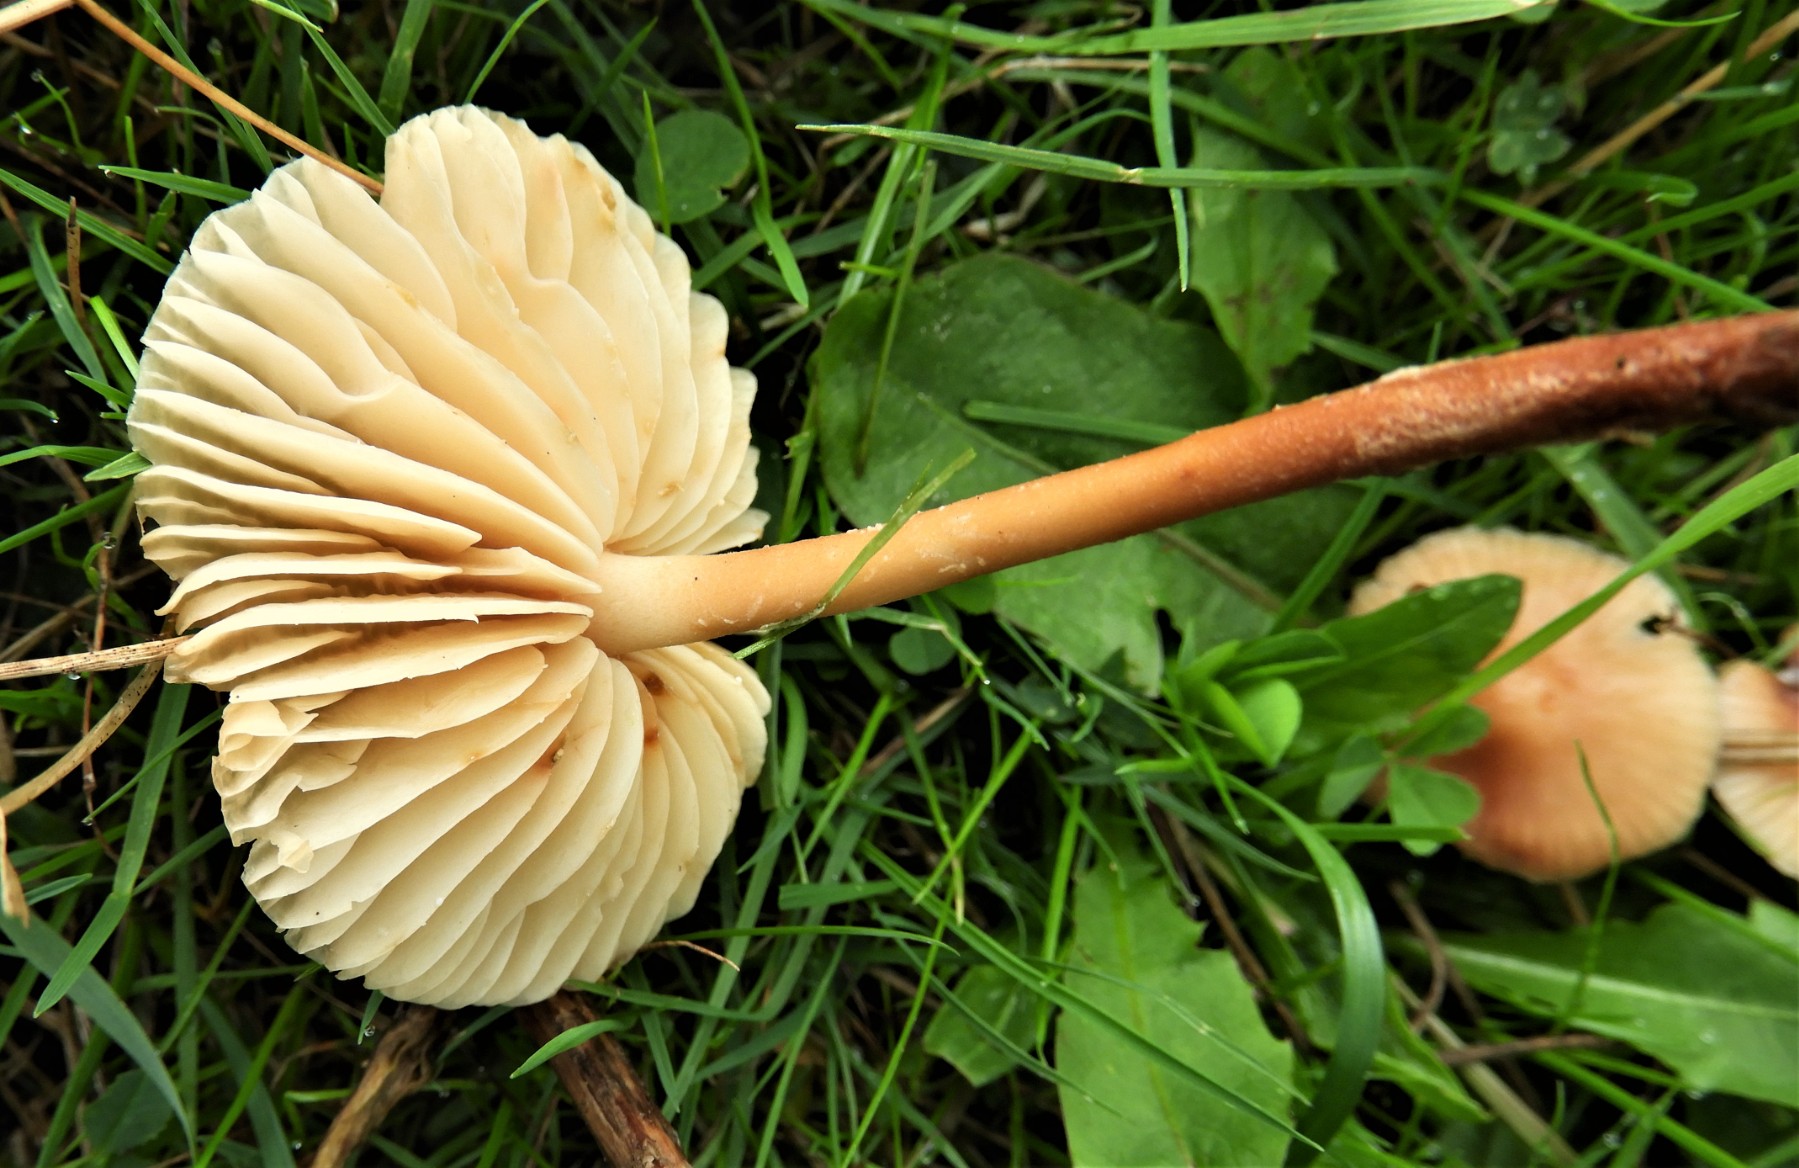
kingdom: Fungi
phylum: Basidiomycota
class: Agaricomycetes
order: Agaricales
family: Marasmiaceae
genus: Marasmius
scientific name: Marasmius oreades
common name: elledans-bruskhat
